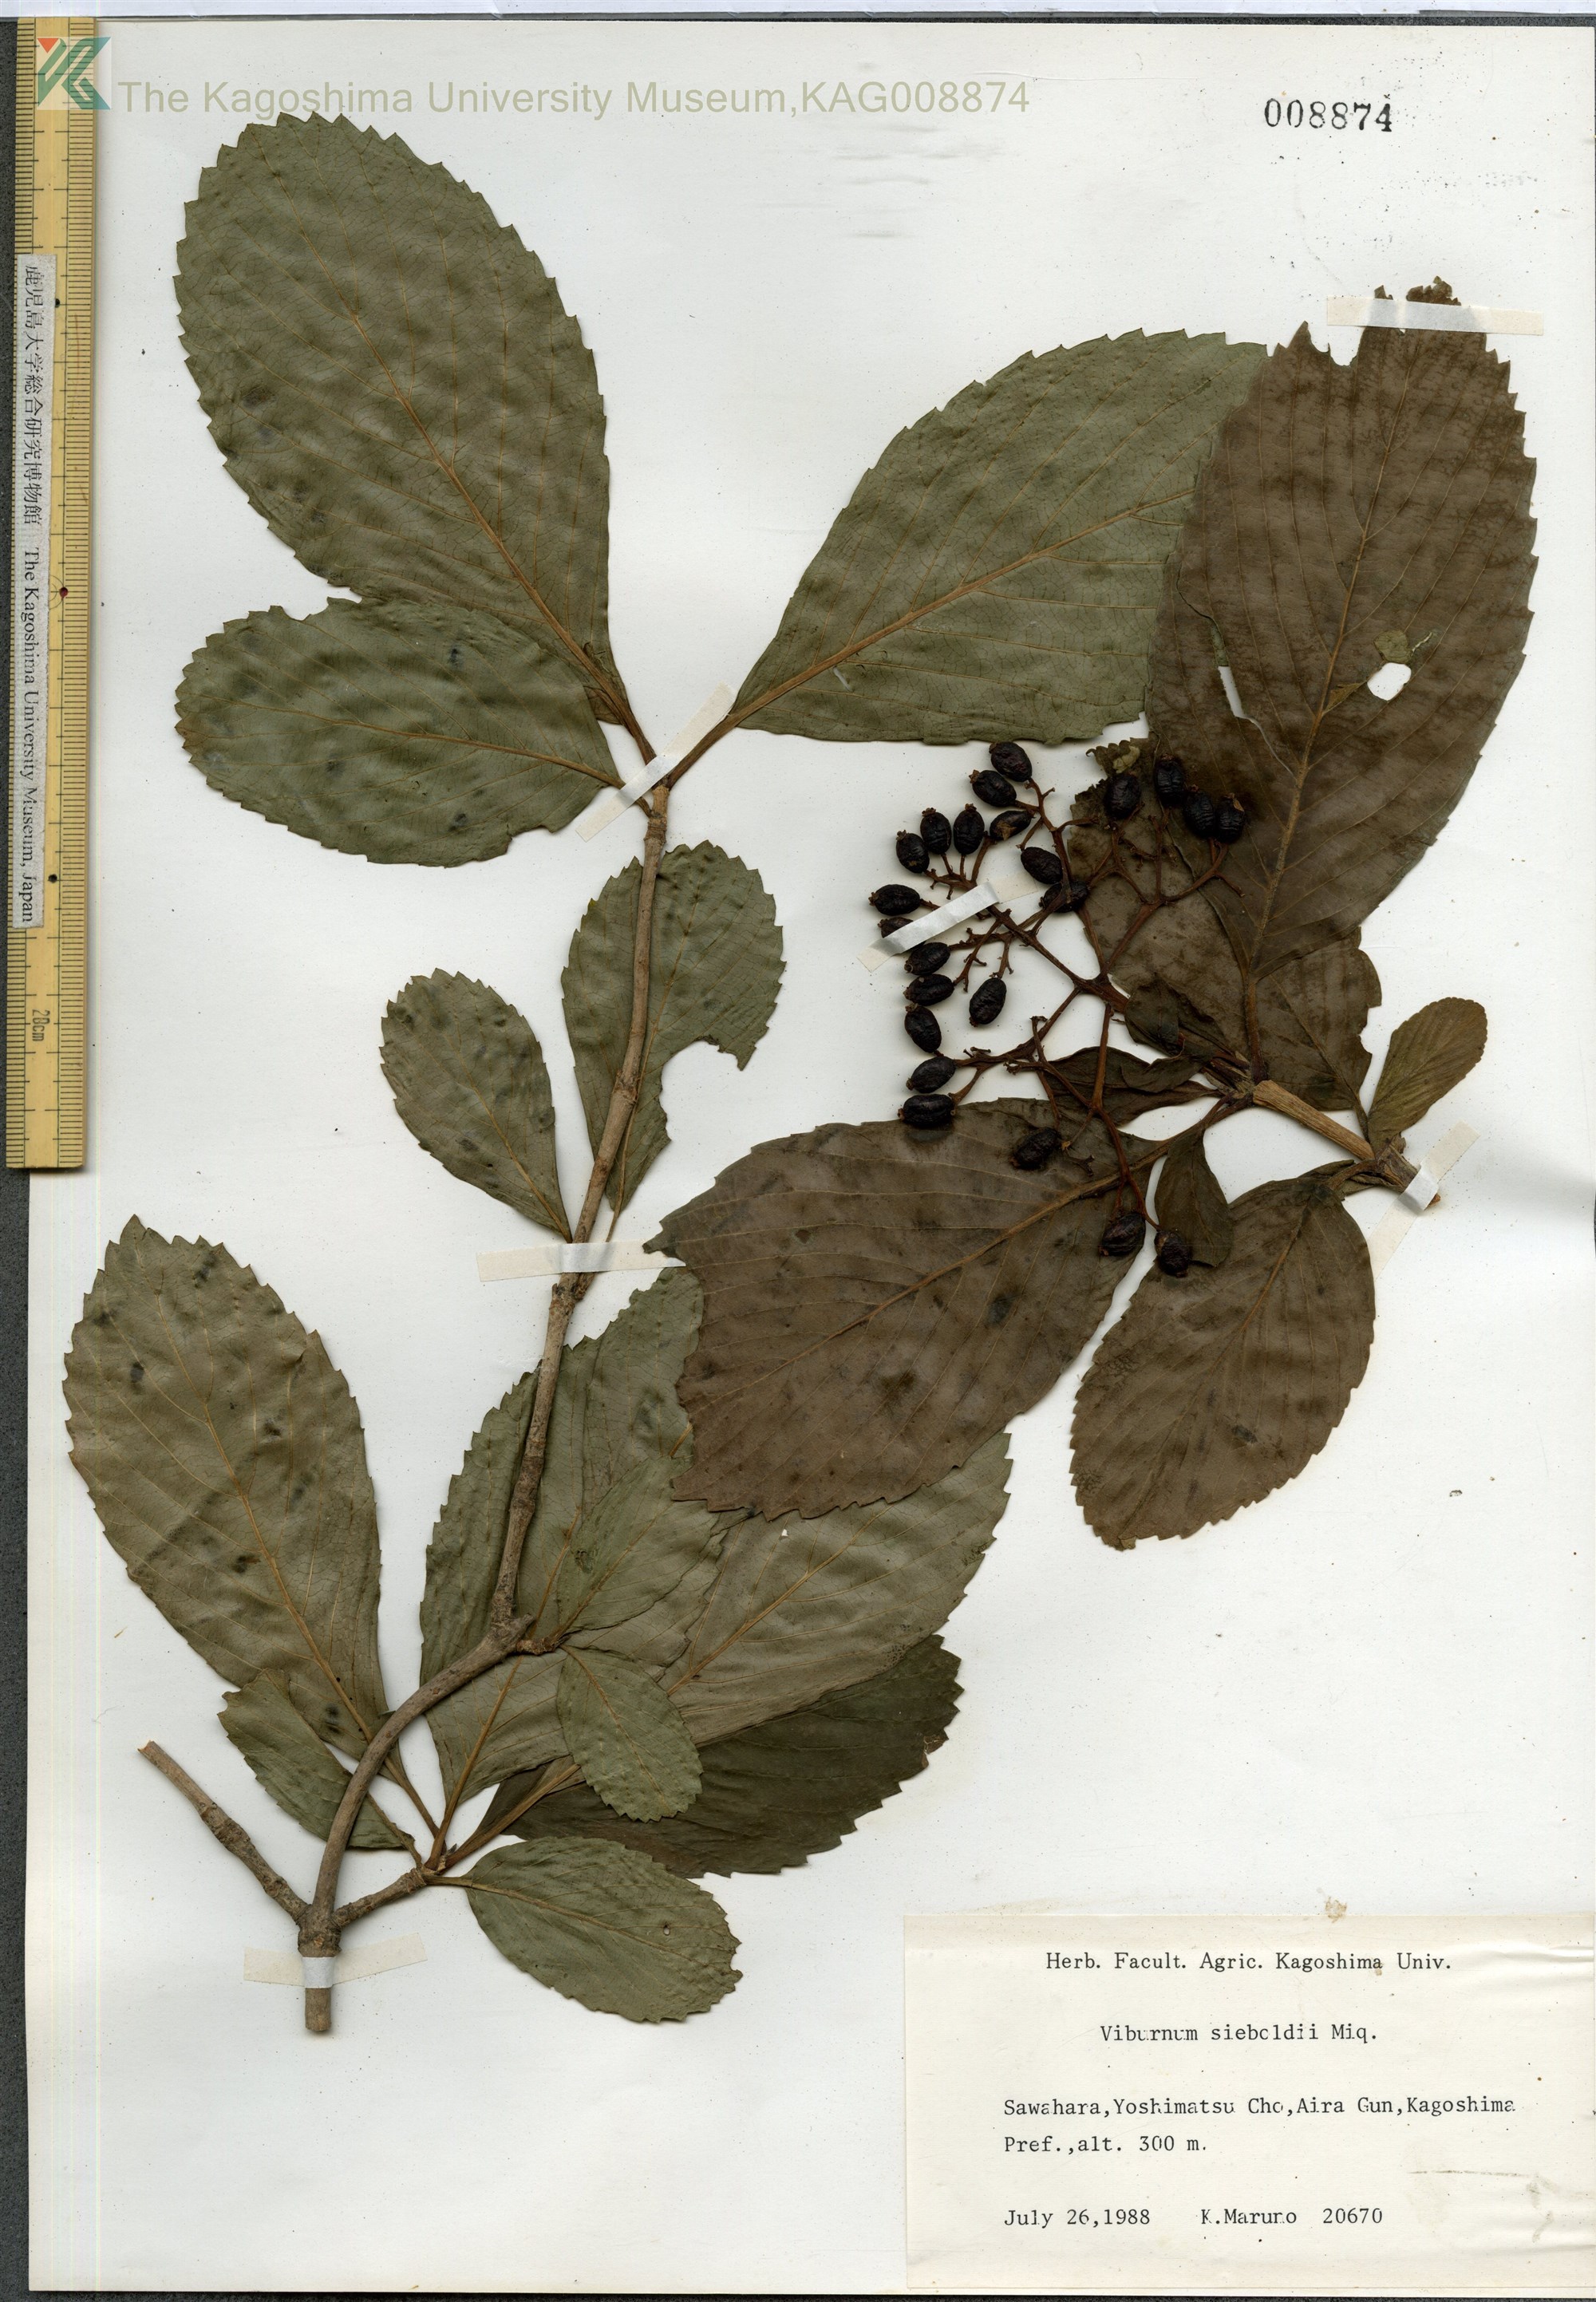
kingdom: Plantae
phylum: Tracheophyta
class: Magnoliopsida
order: Dipsacales
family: Viburnaceae
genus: Viburnum
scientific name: Viburnum sieboldii
